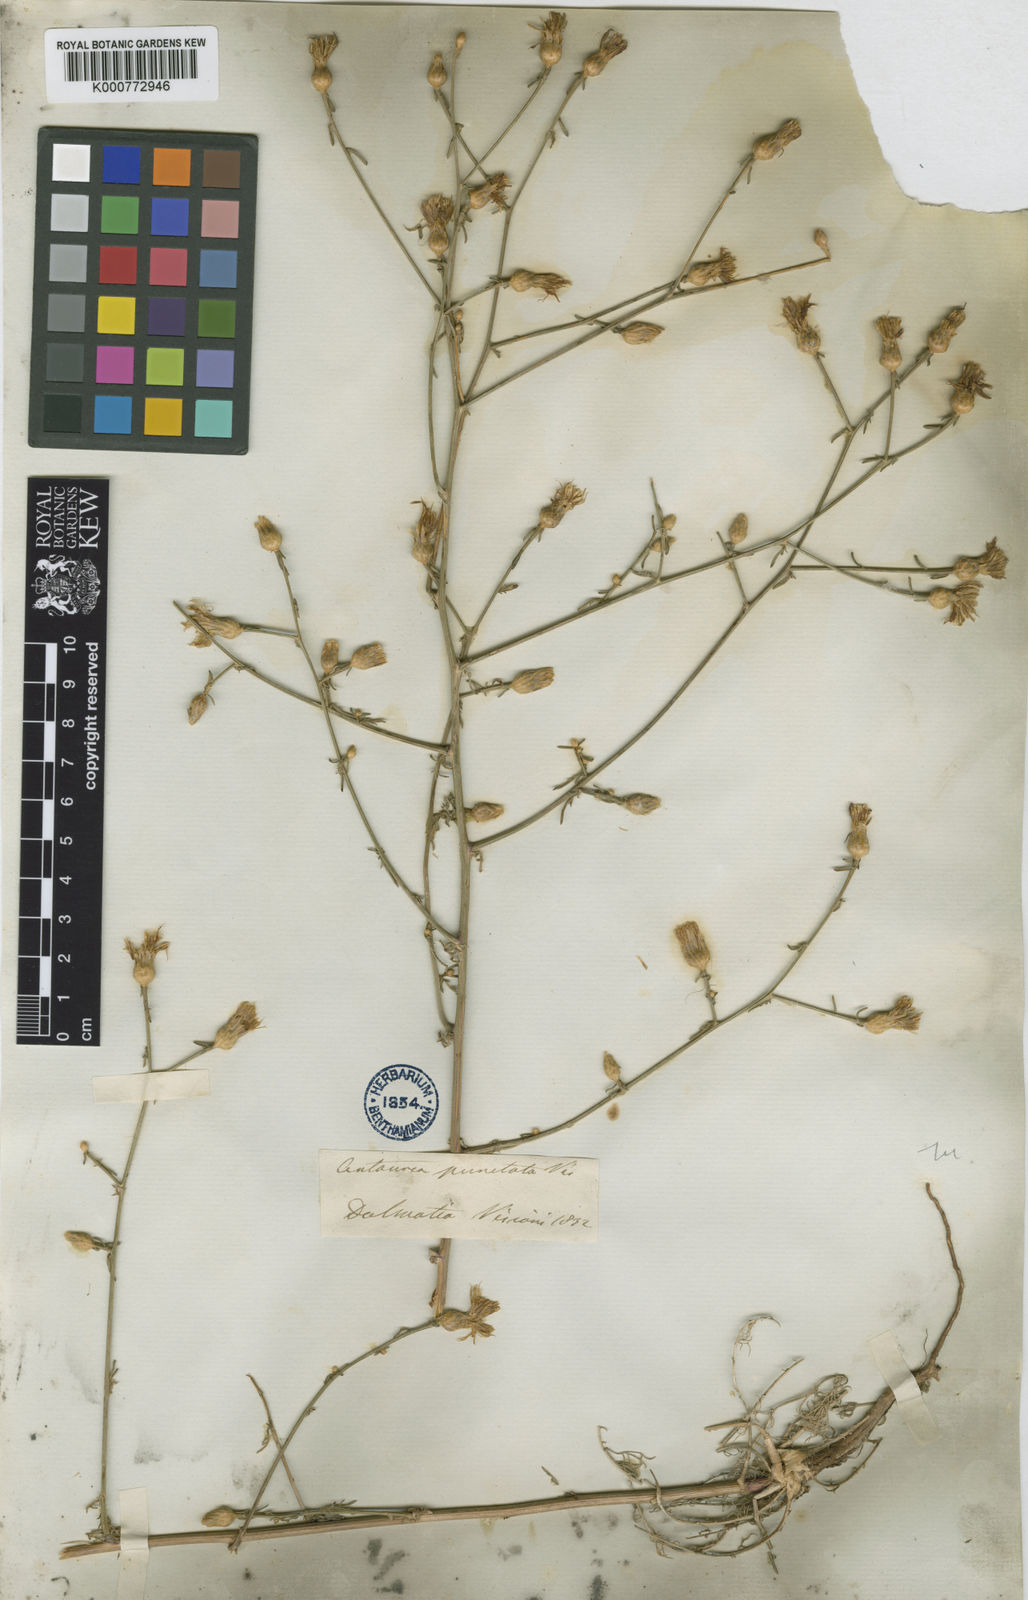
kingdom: Plantae
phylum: Tracheophyta
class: Magnoliopsida
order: Asterales
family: Asteraceae
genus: Centaurea
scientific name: Centaurea glaberrima
